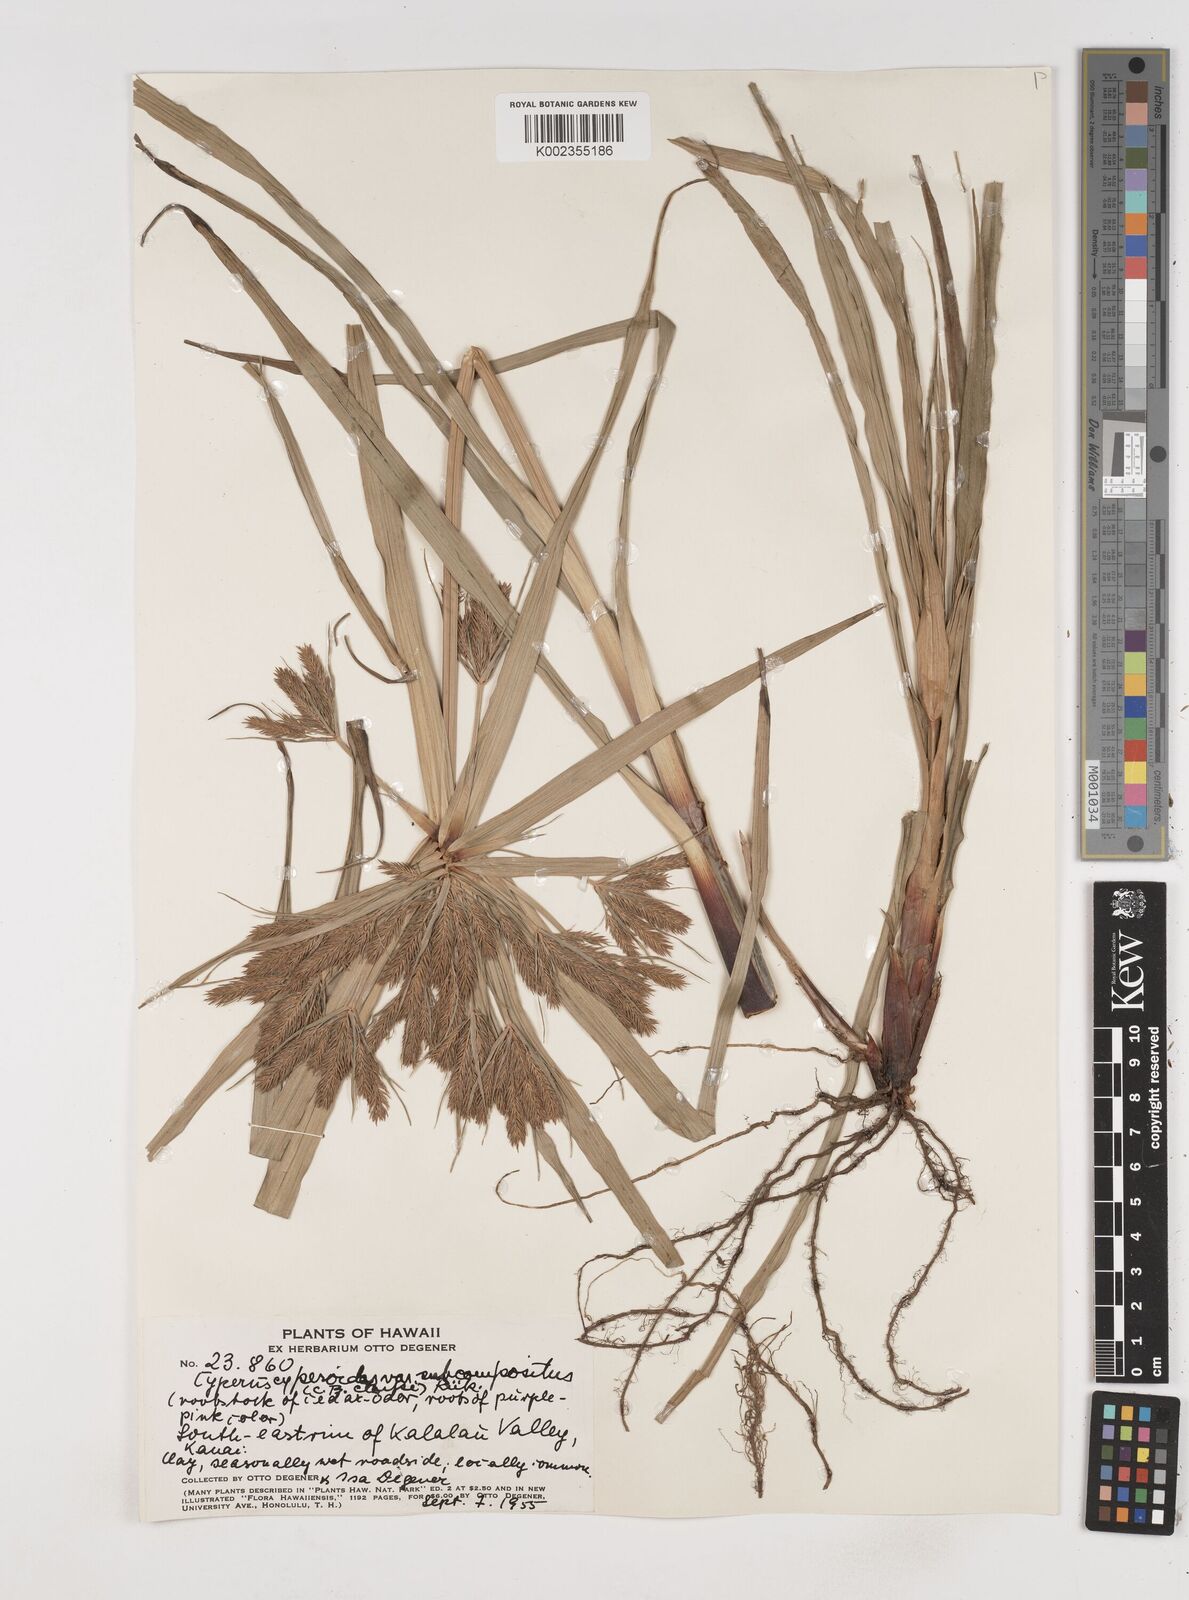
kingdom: Plantae
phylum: Tracheophyta
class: Liliopsida
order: Poales
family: Cyperaceae
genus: Cyperus
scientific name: Cyperus cyperoides
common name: Pacific island flat sedge
